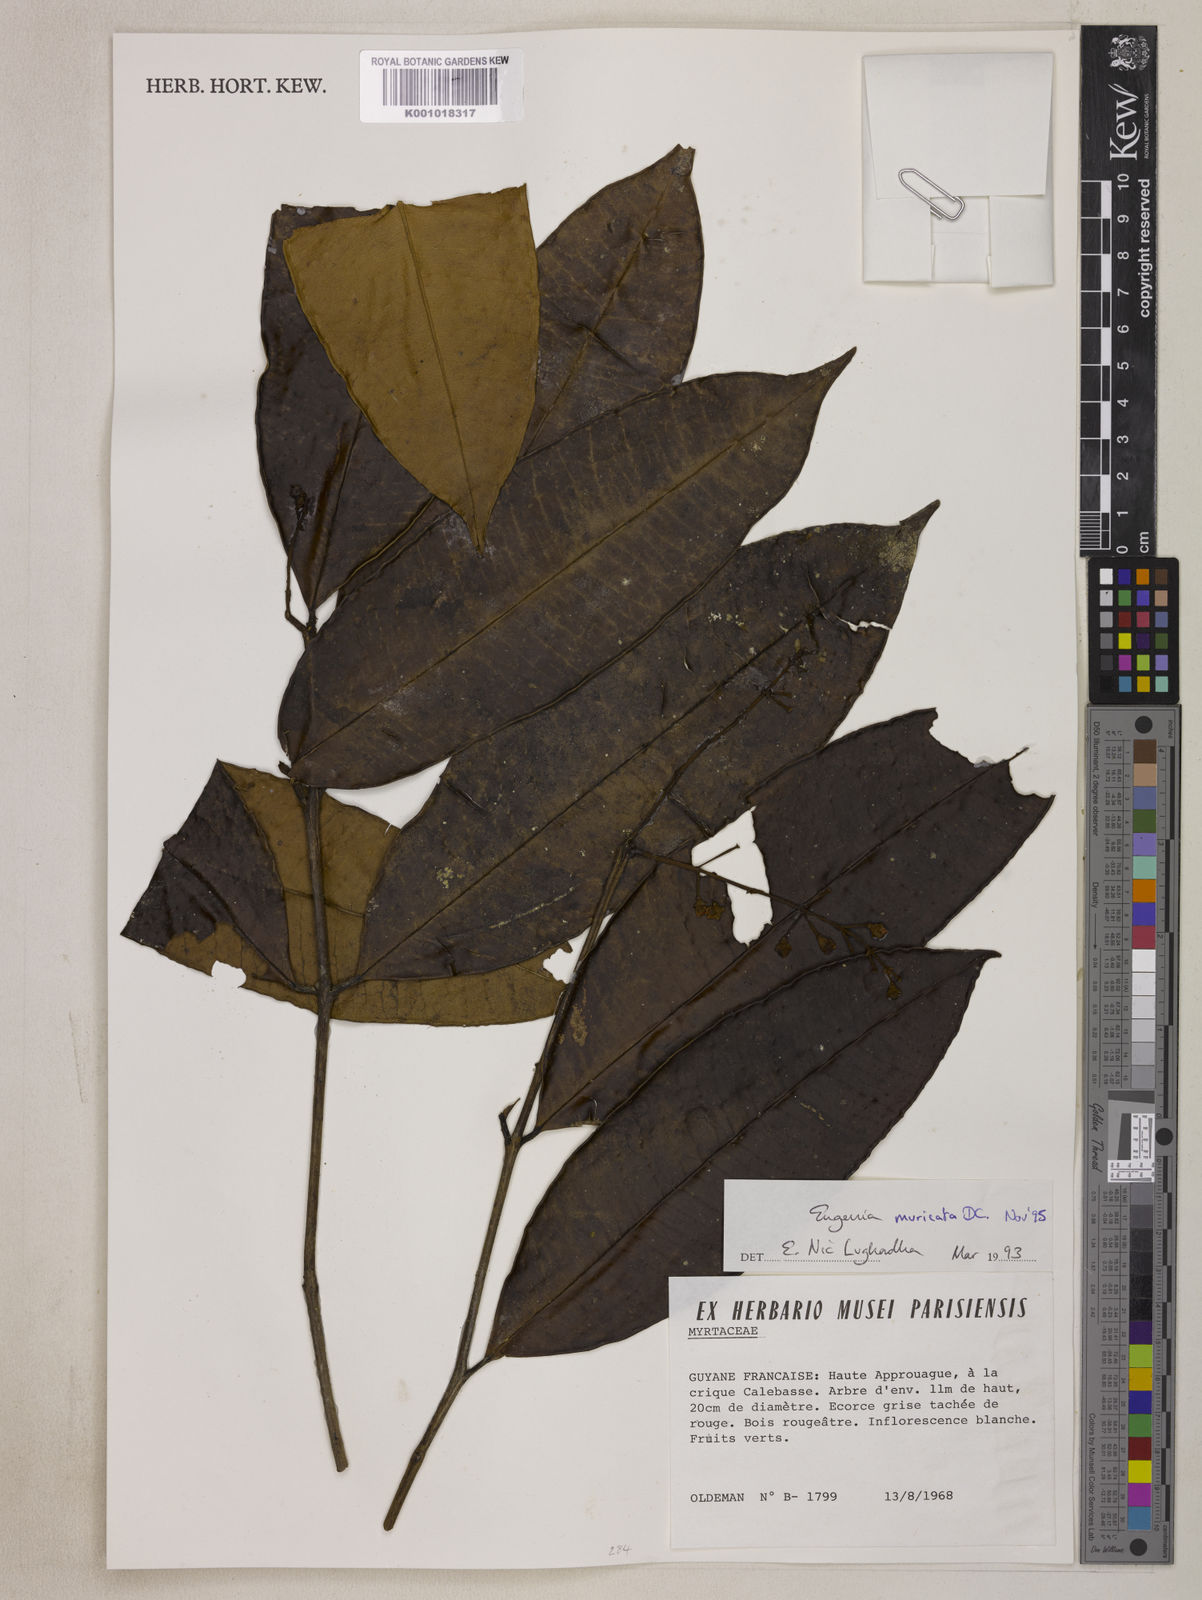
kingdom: Plantae
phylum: Tracheophyta
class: Magnoliopsida
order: Myrtales
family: Myrtaceae
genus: Eugenia
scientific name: Eugenia muricata
